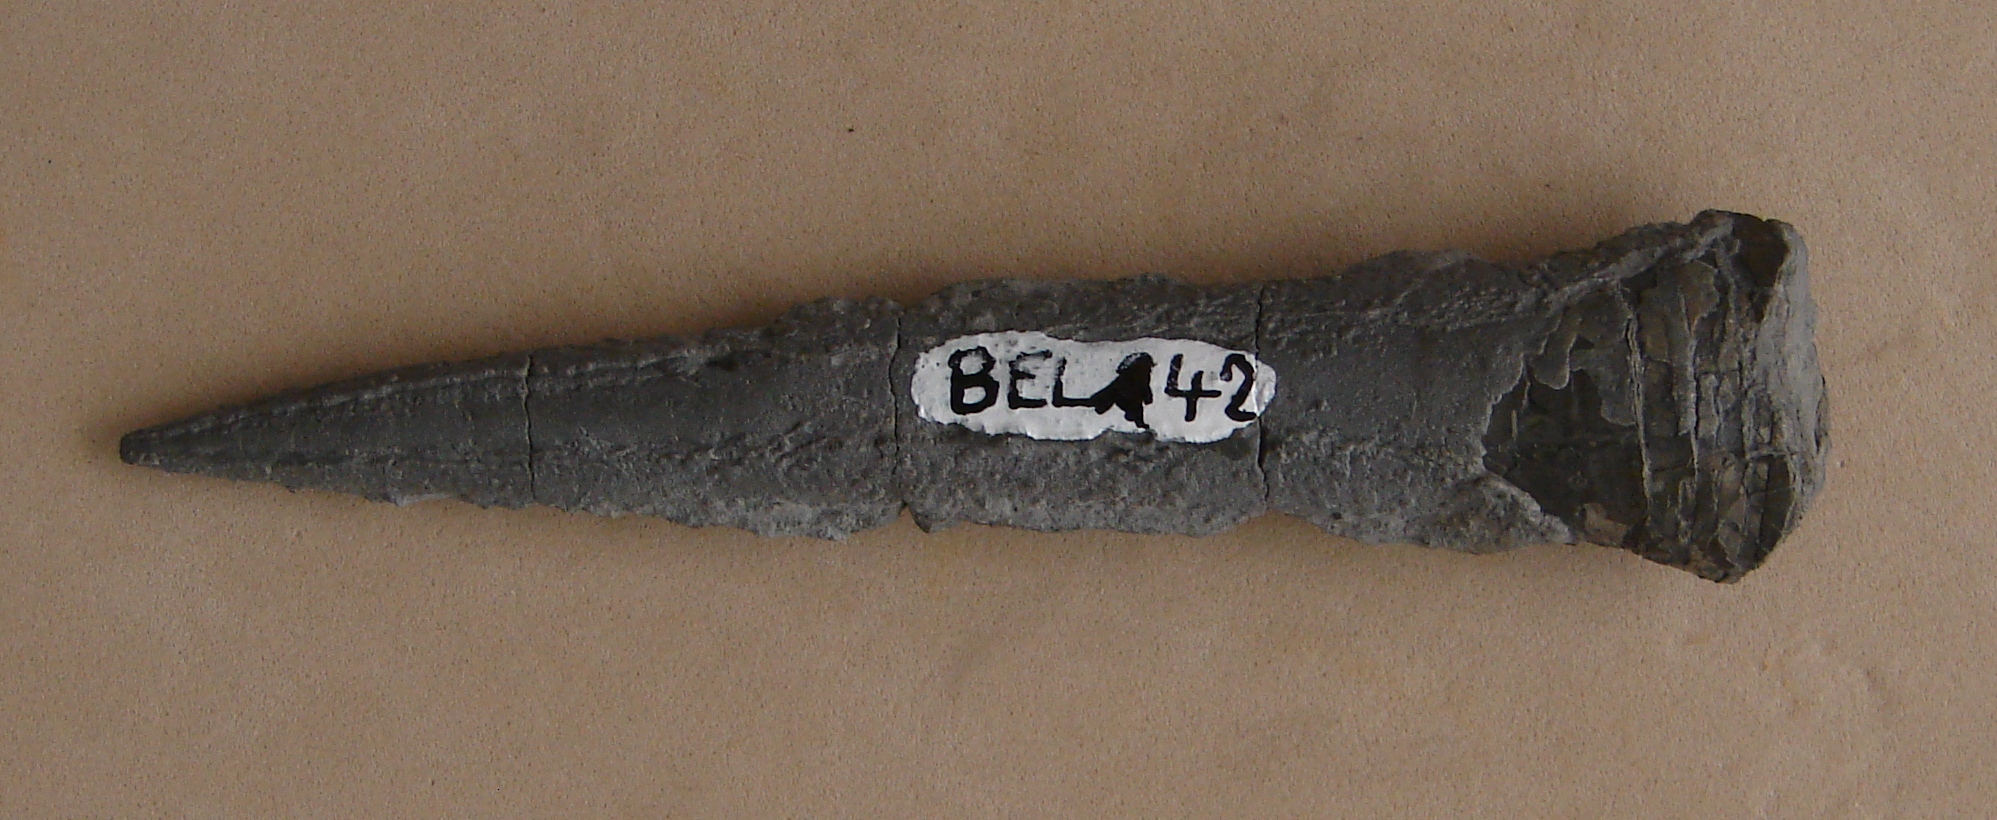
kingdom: Animalia
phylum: Mollusca
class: Cephalopoda
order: Belemnitida
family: Megateuthididae
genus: Acrocoelites
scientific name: Acrocoelites oxyconus
